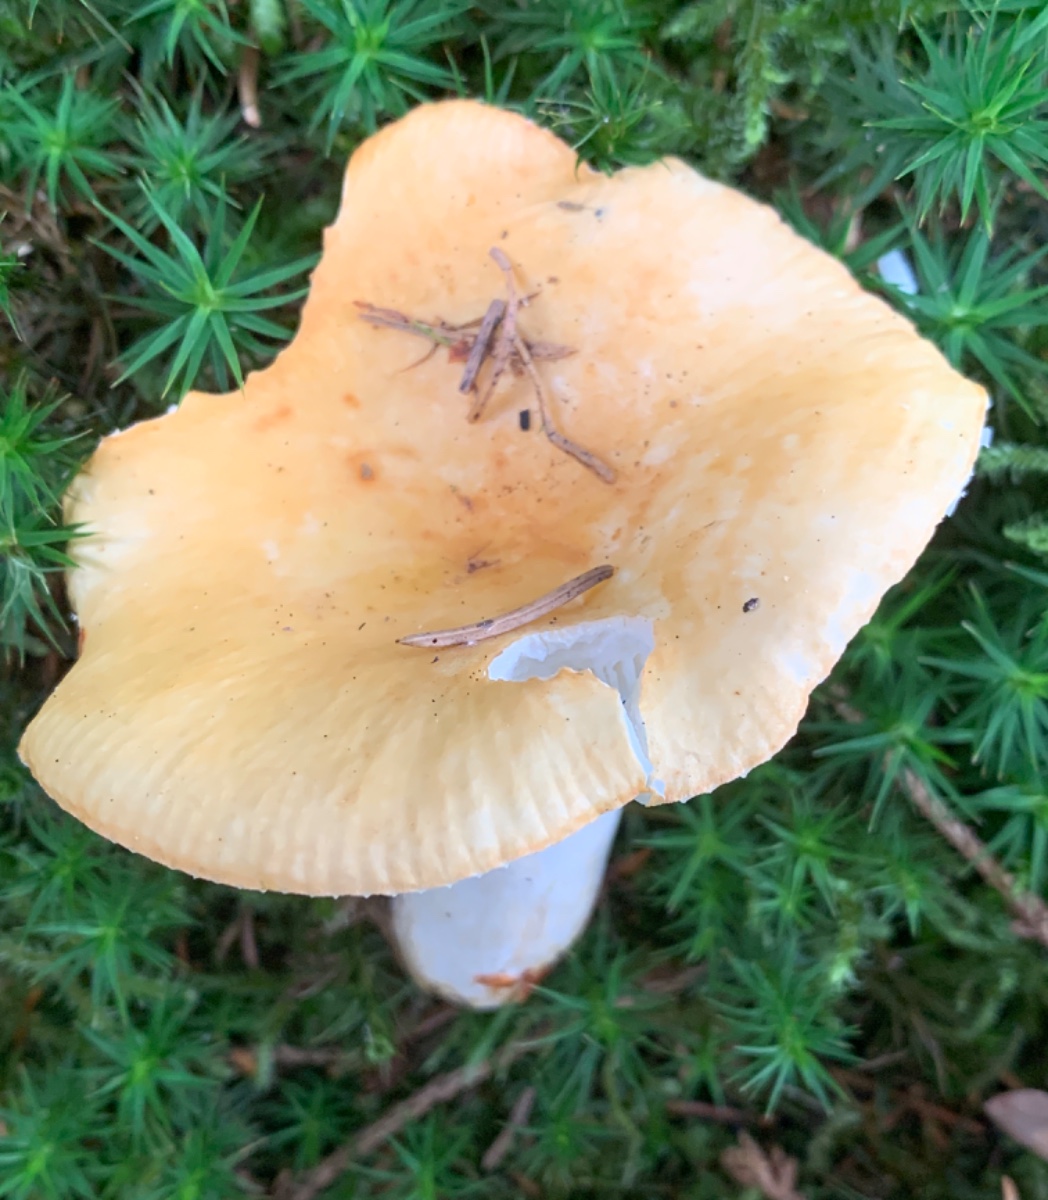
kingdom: Fungi
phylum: Basidiomycota
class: Agaricomycetes
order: Russulales
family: Russulaceae
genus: Russula
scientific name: Russula ochroleuca
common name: okkergul skørhat
